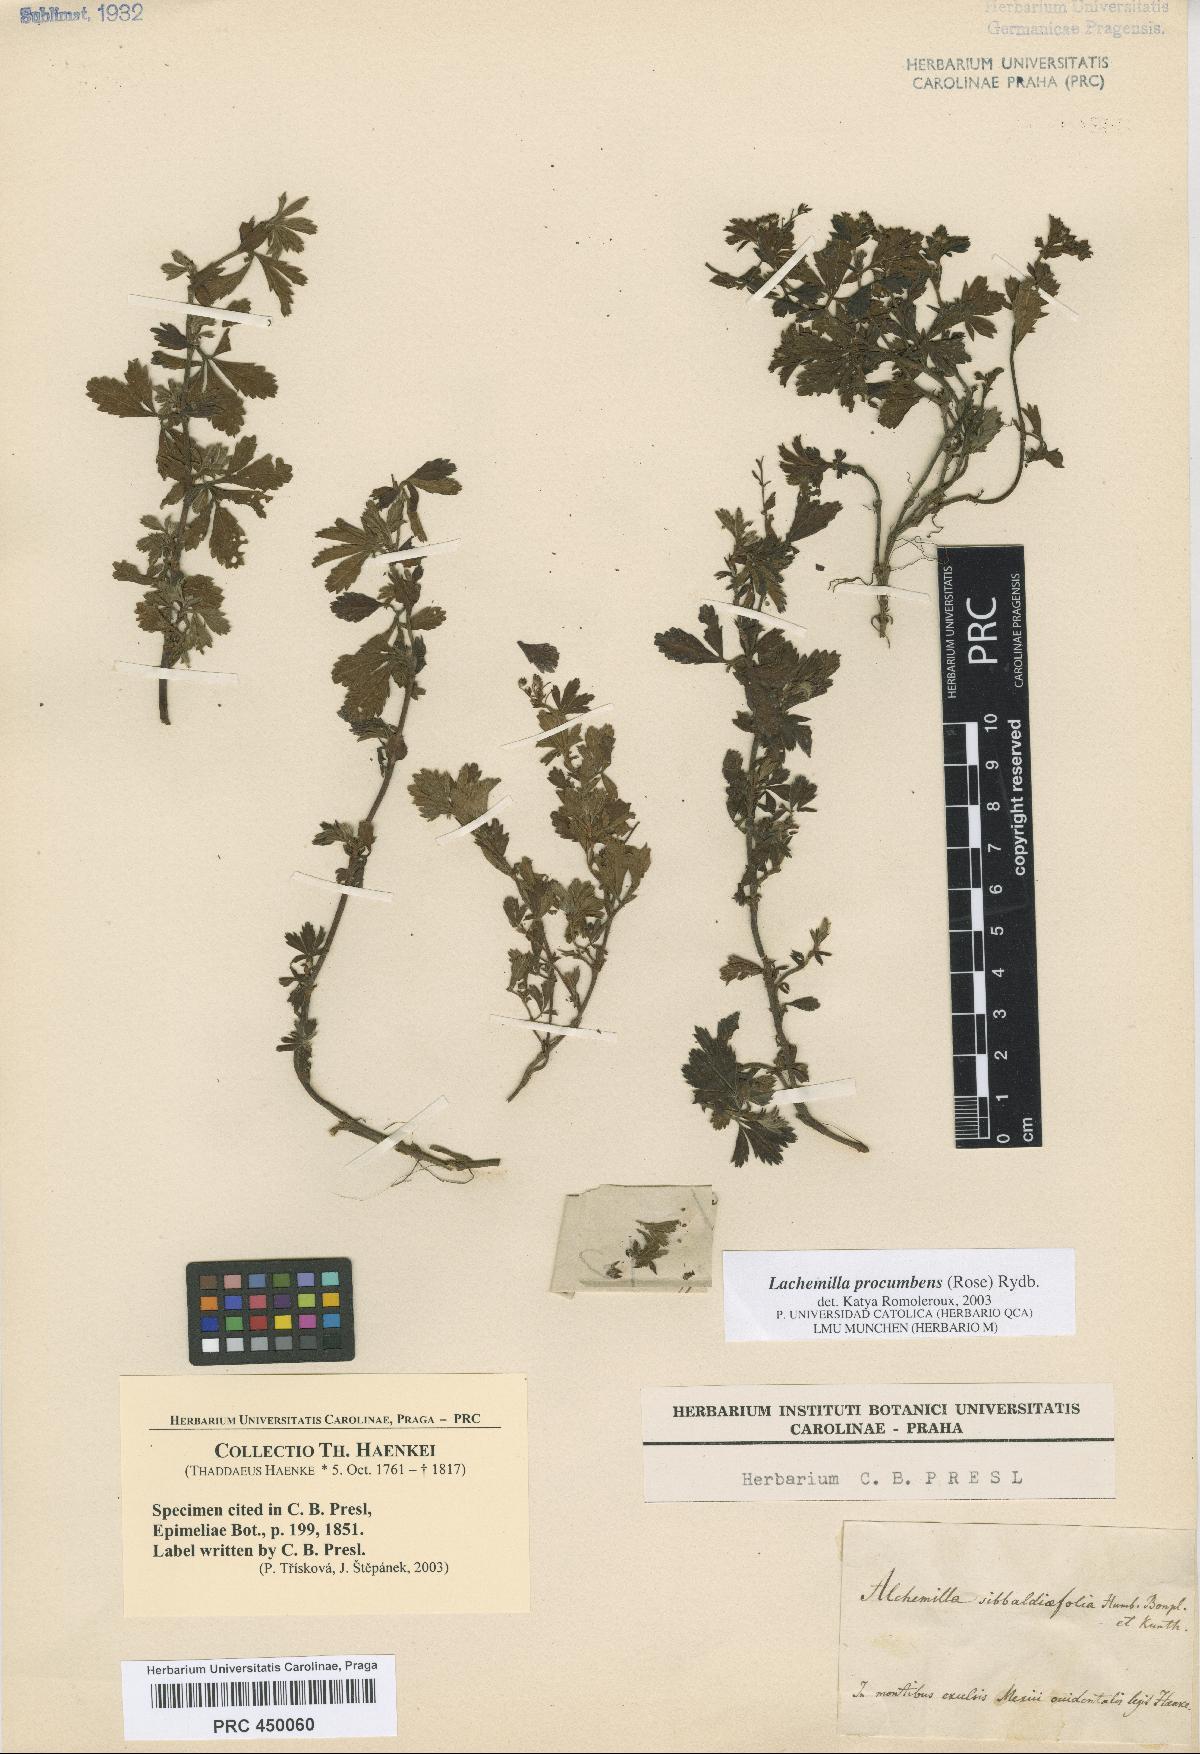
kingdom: Plantae
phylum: Tracheophyta
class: Magnoliopsida
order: Rosales
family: Rosaceae
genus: Lachemilla
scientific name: Lachemilla procumbens
